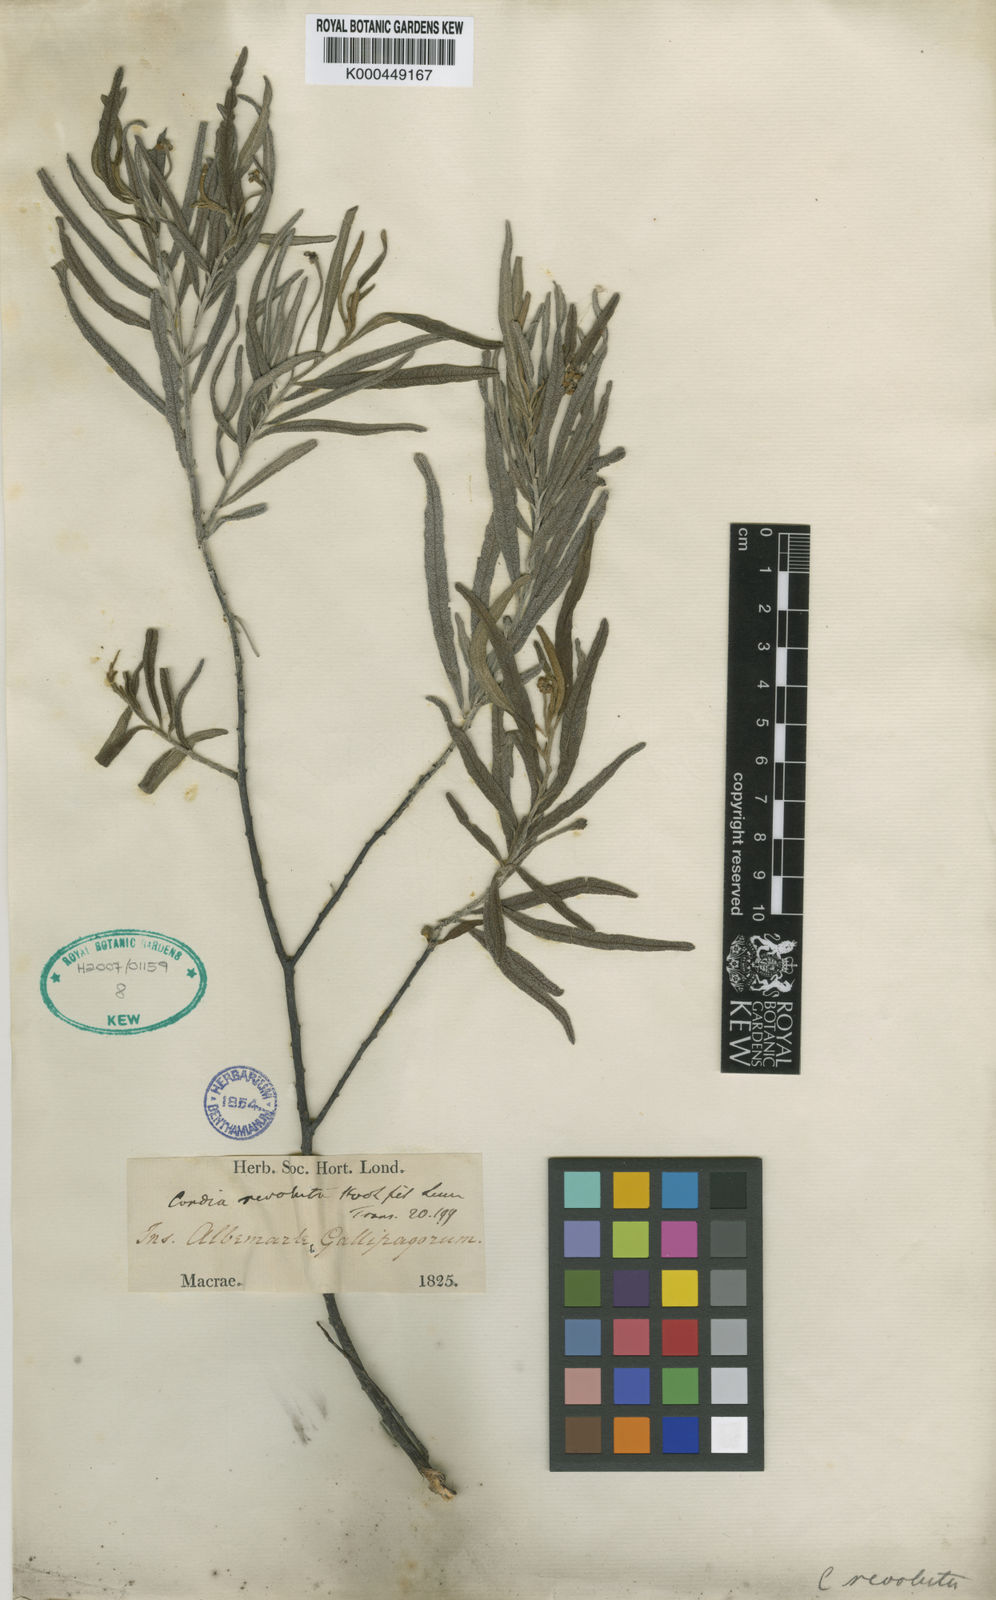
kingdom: Plantae
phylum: Tracheophyta
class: Magnoliopsida
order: Boraginales
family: Cordiaceae
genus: Varronia
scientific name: Varronia revoluta
